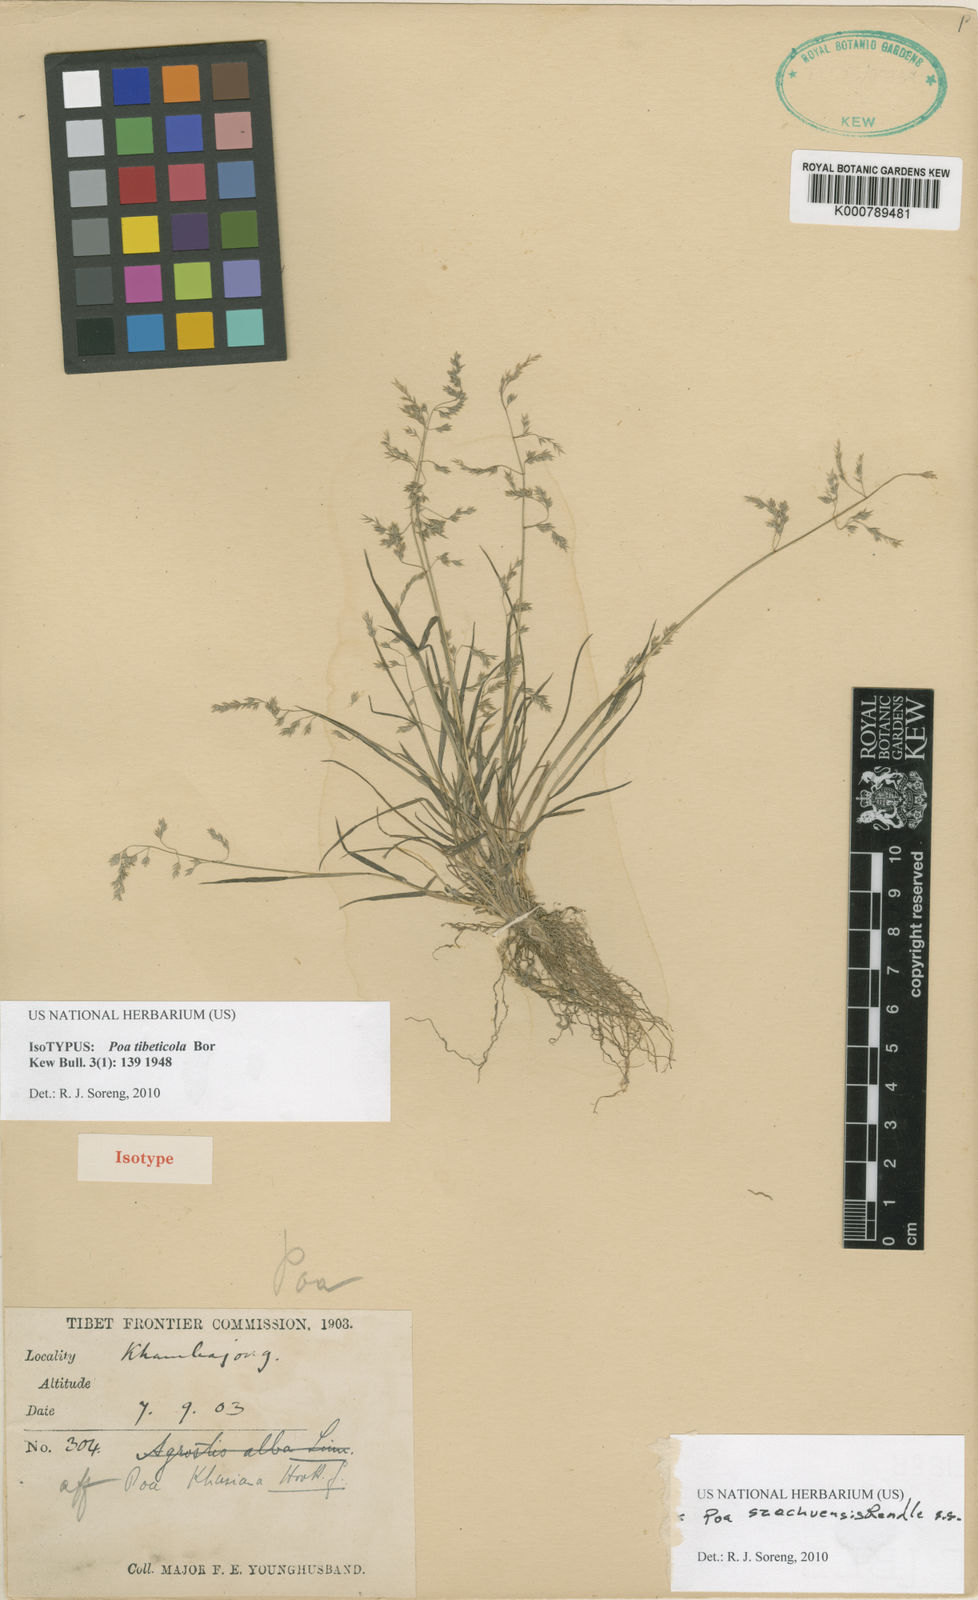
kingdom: Plantae
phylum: Tracheophyta
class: Liliopsida
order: Poales
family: Poaceae
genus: Poa
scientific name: Poa sikkimensis
